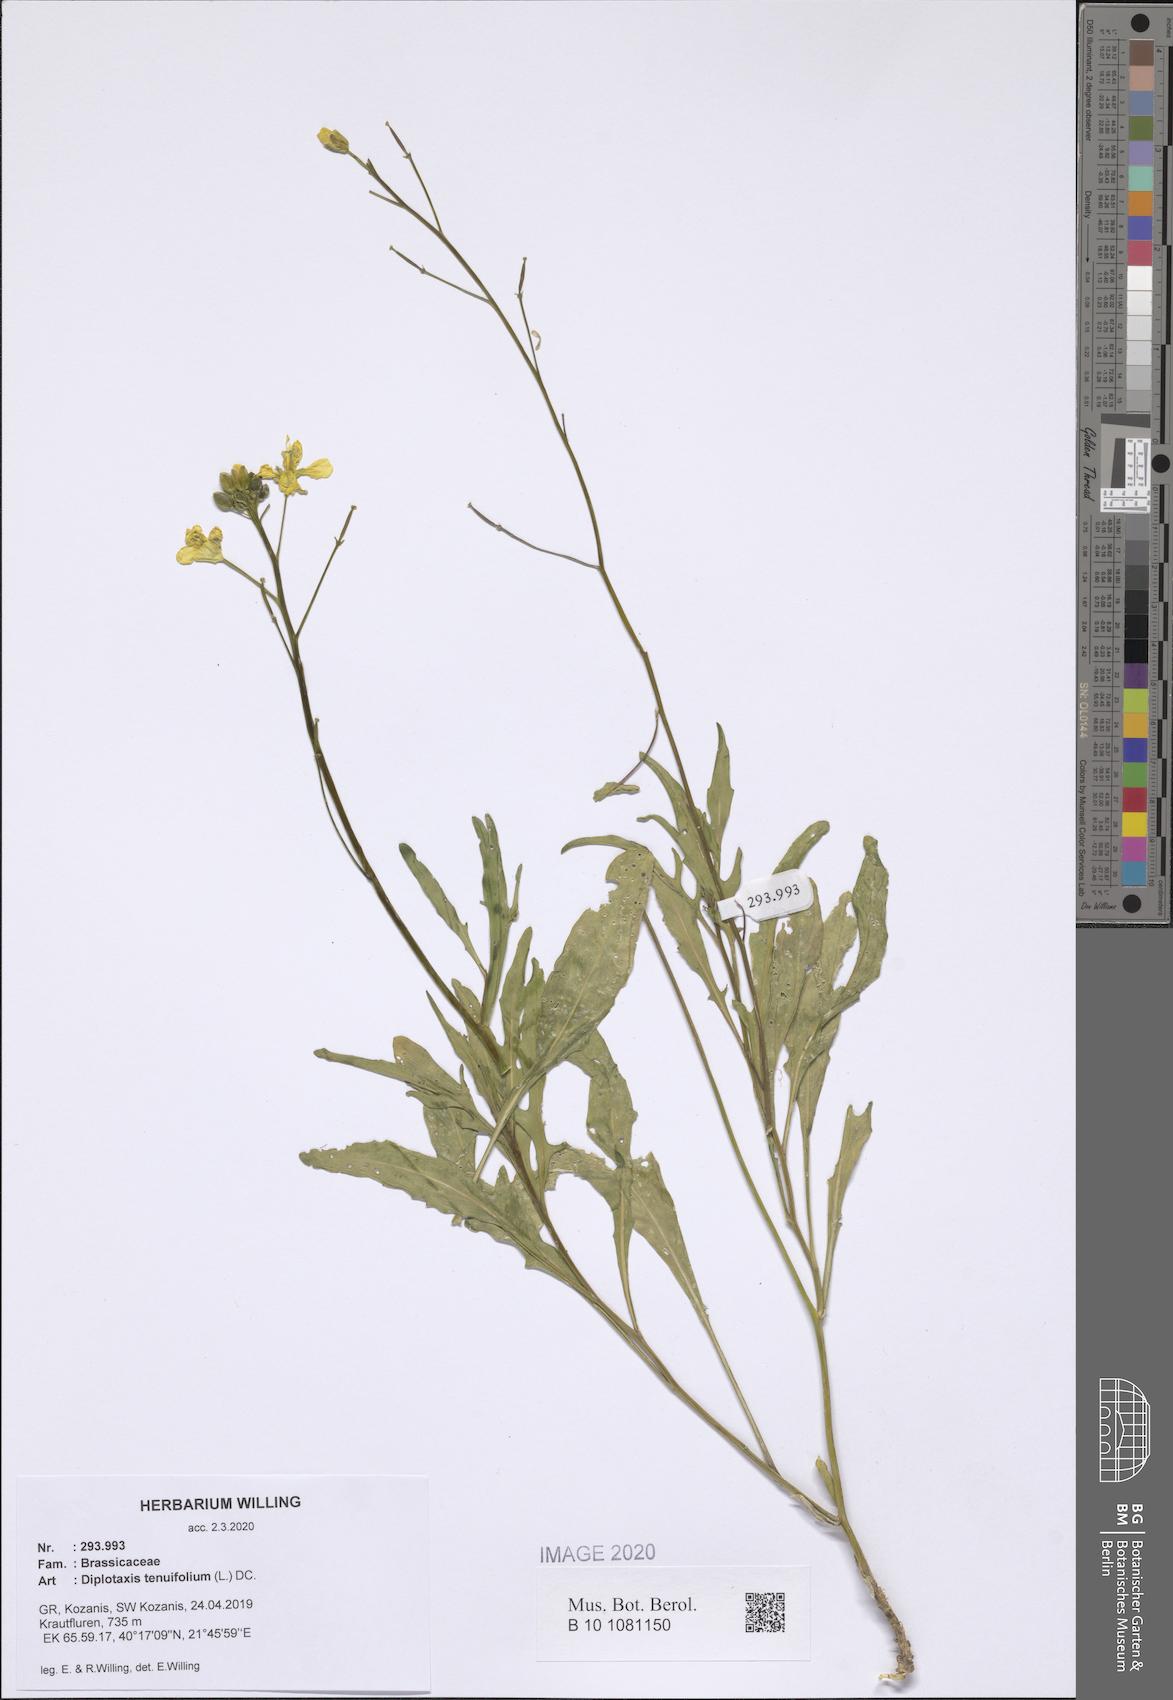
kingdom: Plantae
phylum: Tracheophyta
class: Magnoliopsida
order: Brassicales
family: Brassicaceae
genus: Diplotaxis
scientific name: Diplotaxis tenuifolia
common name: Perennial wall-rocket
